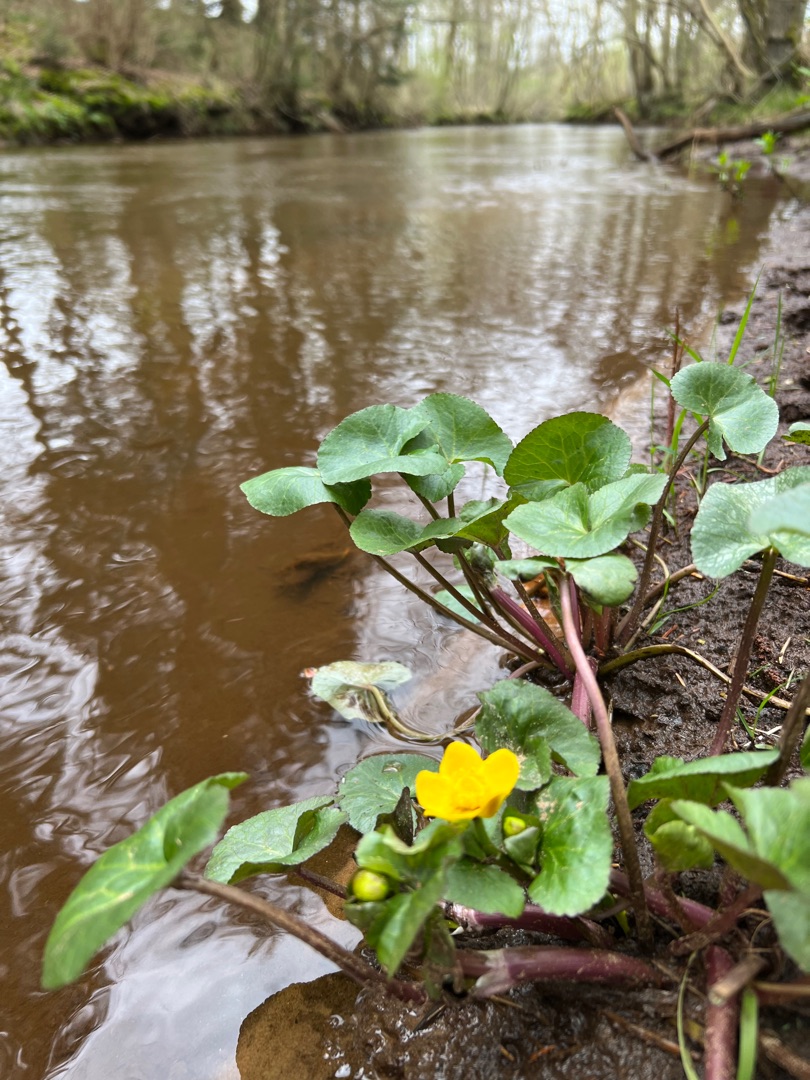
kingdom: Plantae
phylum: Tracheophyta
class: Magnoliopsida
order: Ranunculales
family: Ranunculaceae
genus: Caltha
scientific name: Caltha palustris
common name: Eng-kabbeleje
